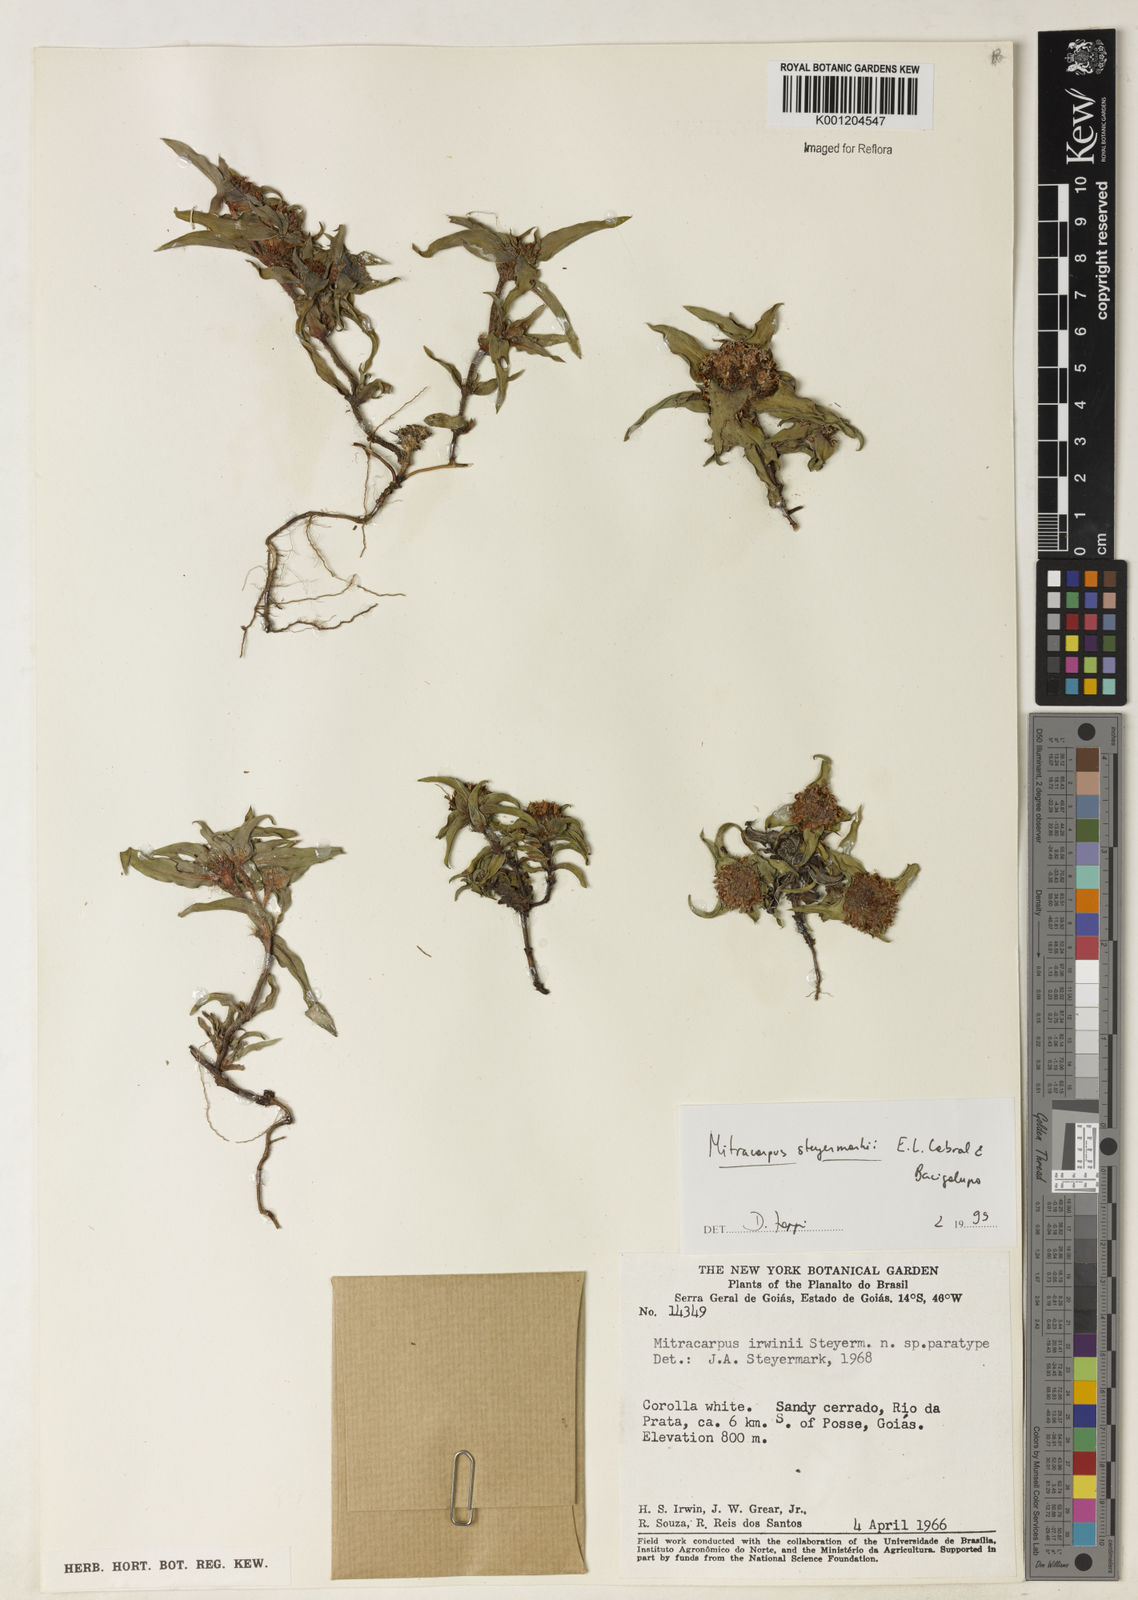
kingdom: Plantae
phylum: Tracheophyta
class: Magnoliopsida
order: Gentianales
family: Rubiaceae
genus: Mitracarpus
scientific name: Mitracarpus steyermarkii
